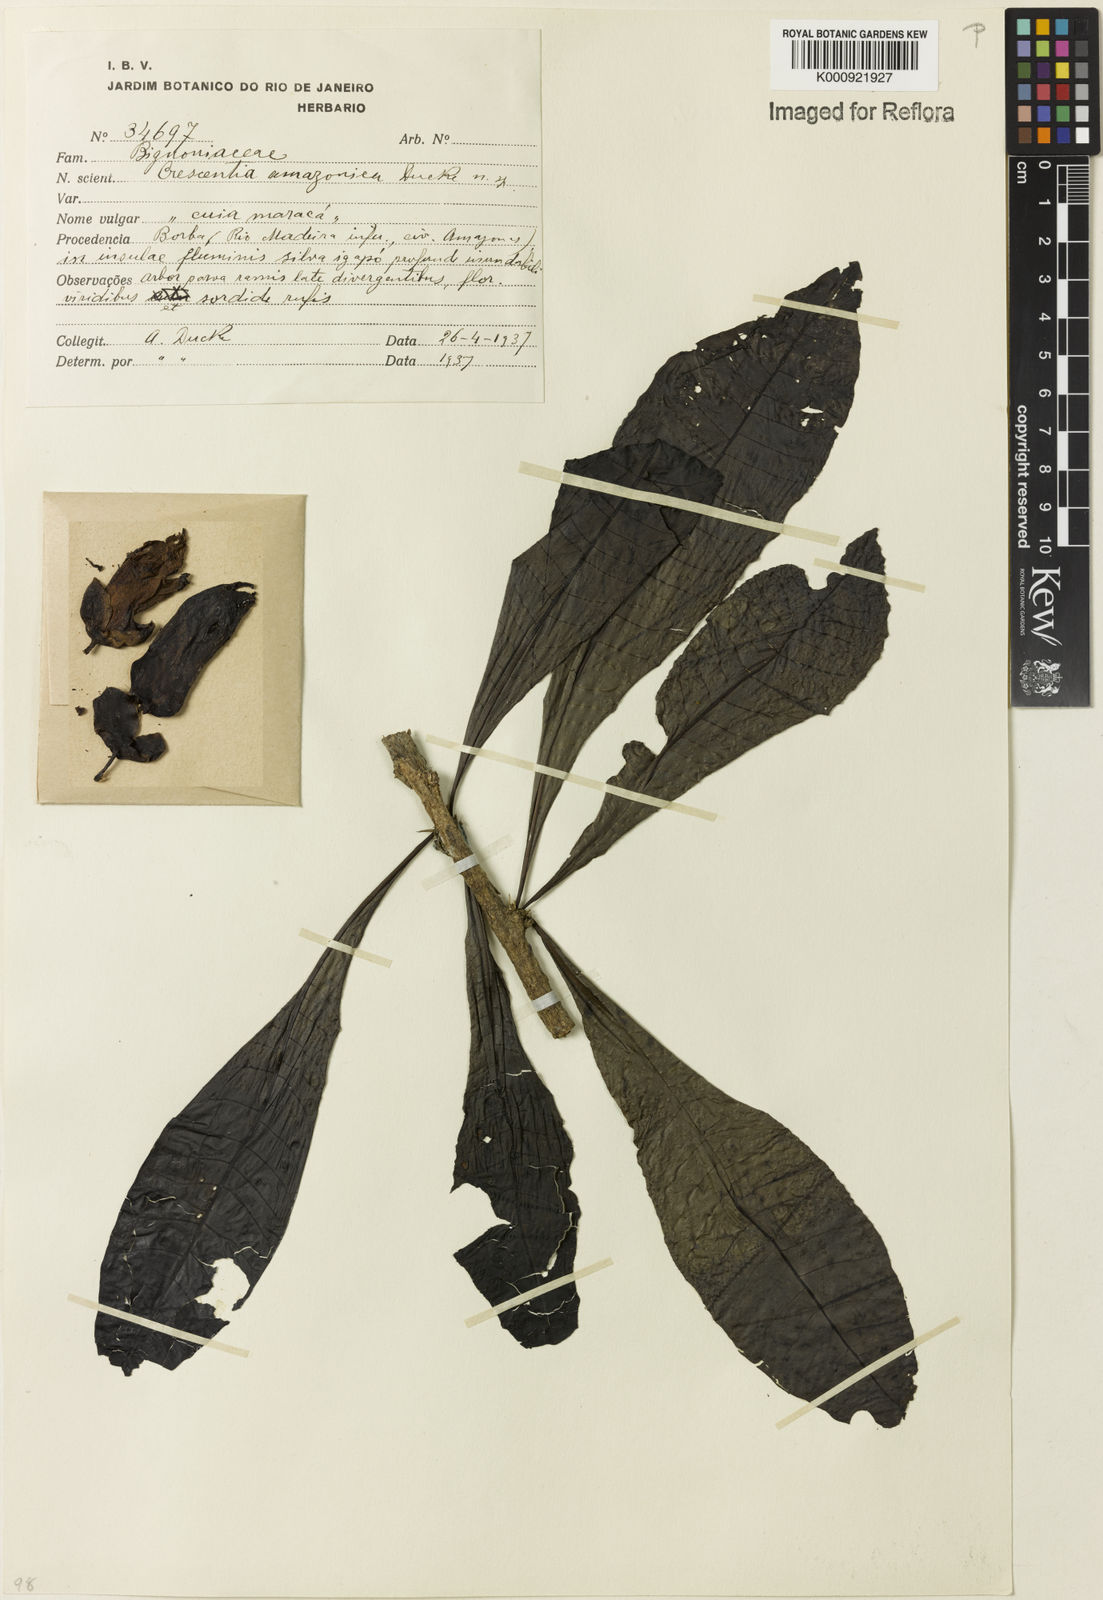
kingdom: Plantae
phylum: Tracheophyta
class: Magnoliopsida
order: Lamiales
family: Bignoniaceae
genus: Crescentia
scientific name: Crescentia amazonica
